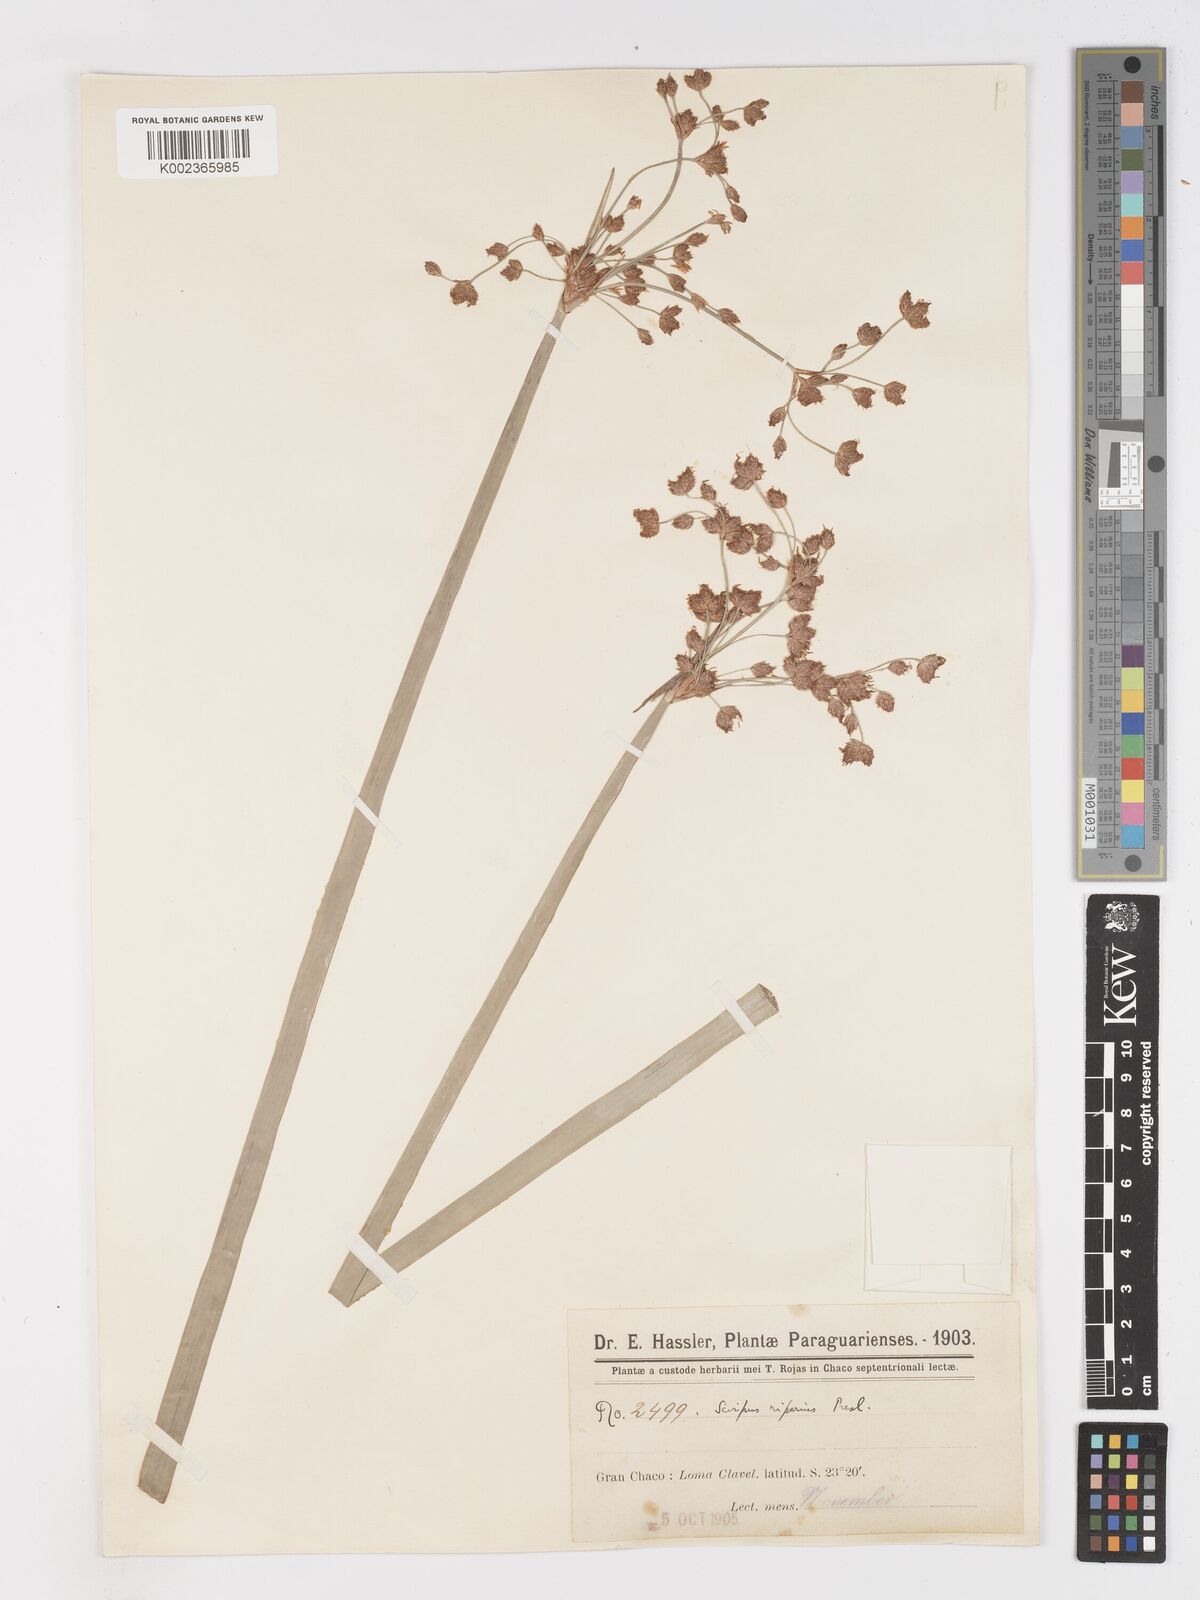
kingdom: Plantae
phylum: Tracheophyta
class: Liliopsida
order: Poales
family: Cyperaceae
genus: Schoenoplectus
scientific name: Schoenoplectus californicus
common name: California bulrush
